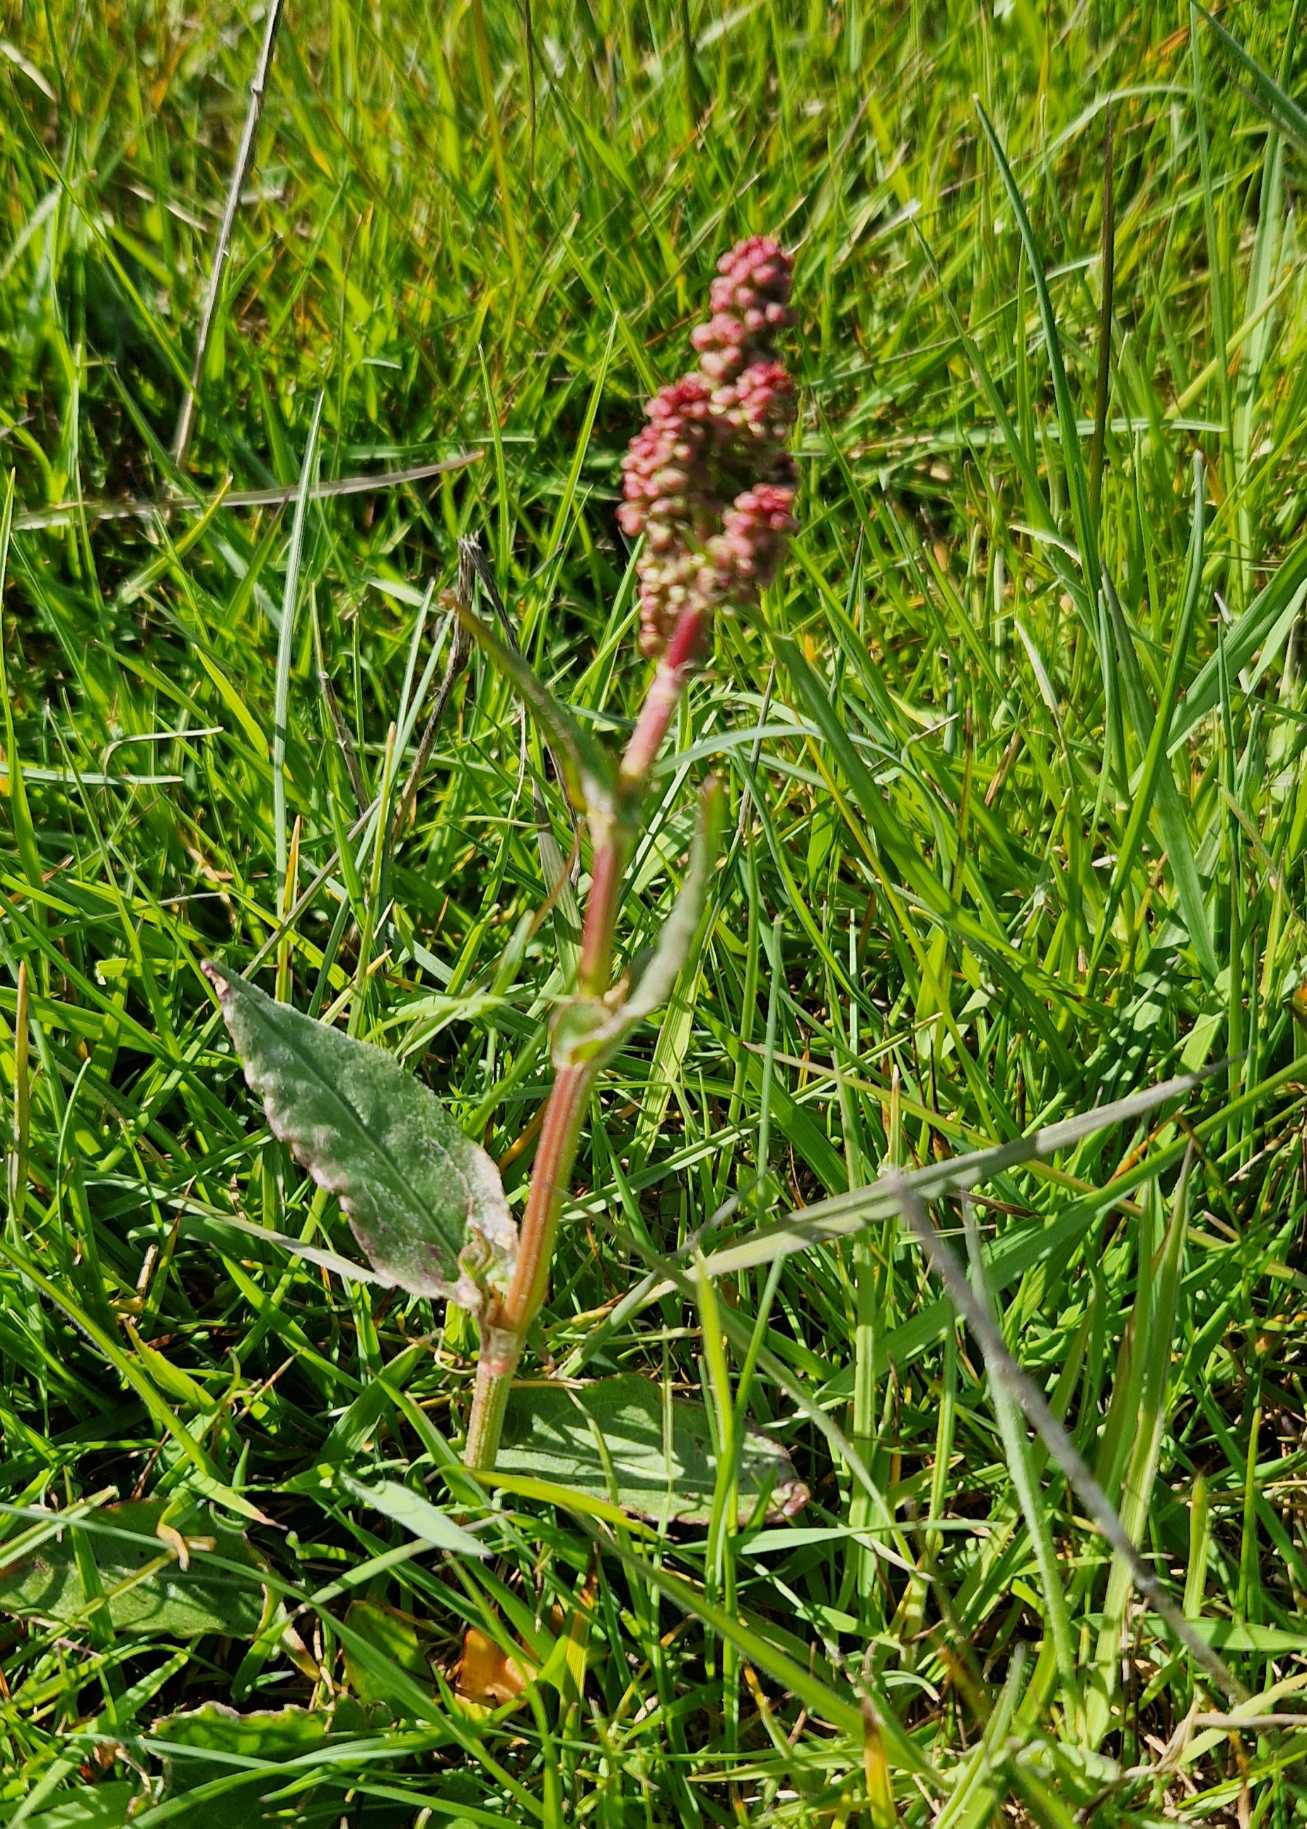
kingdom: Plantae
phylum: Tracheophyta
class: Magnoliopsida
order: Caryophyllales
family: Polygonaceae
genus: Rumex
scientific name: Rumex acetosa
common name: Almindelig syre
